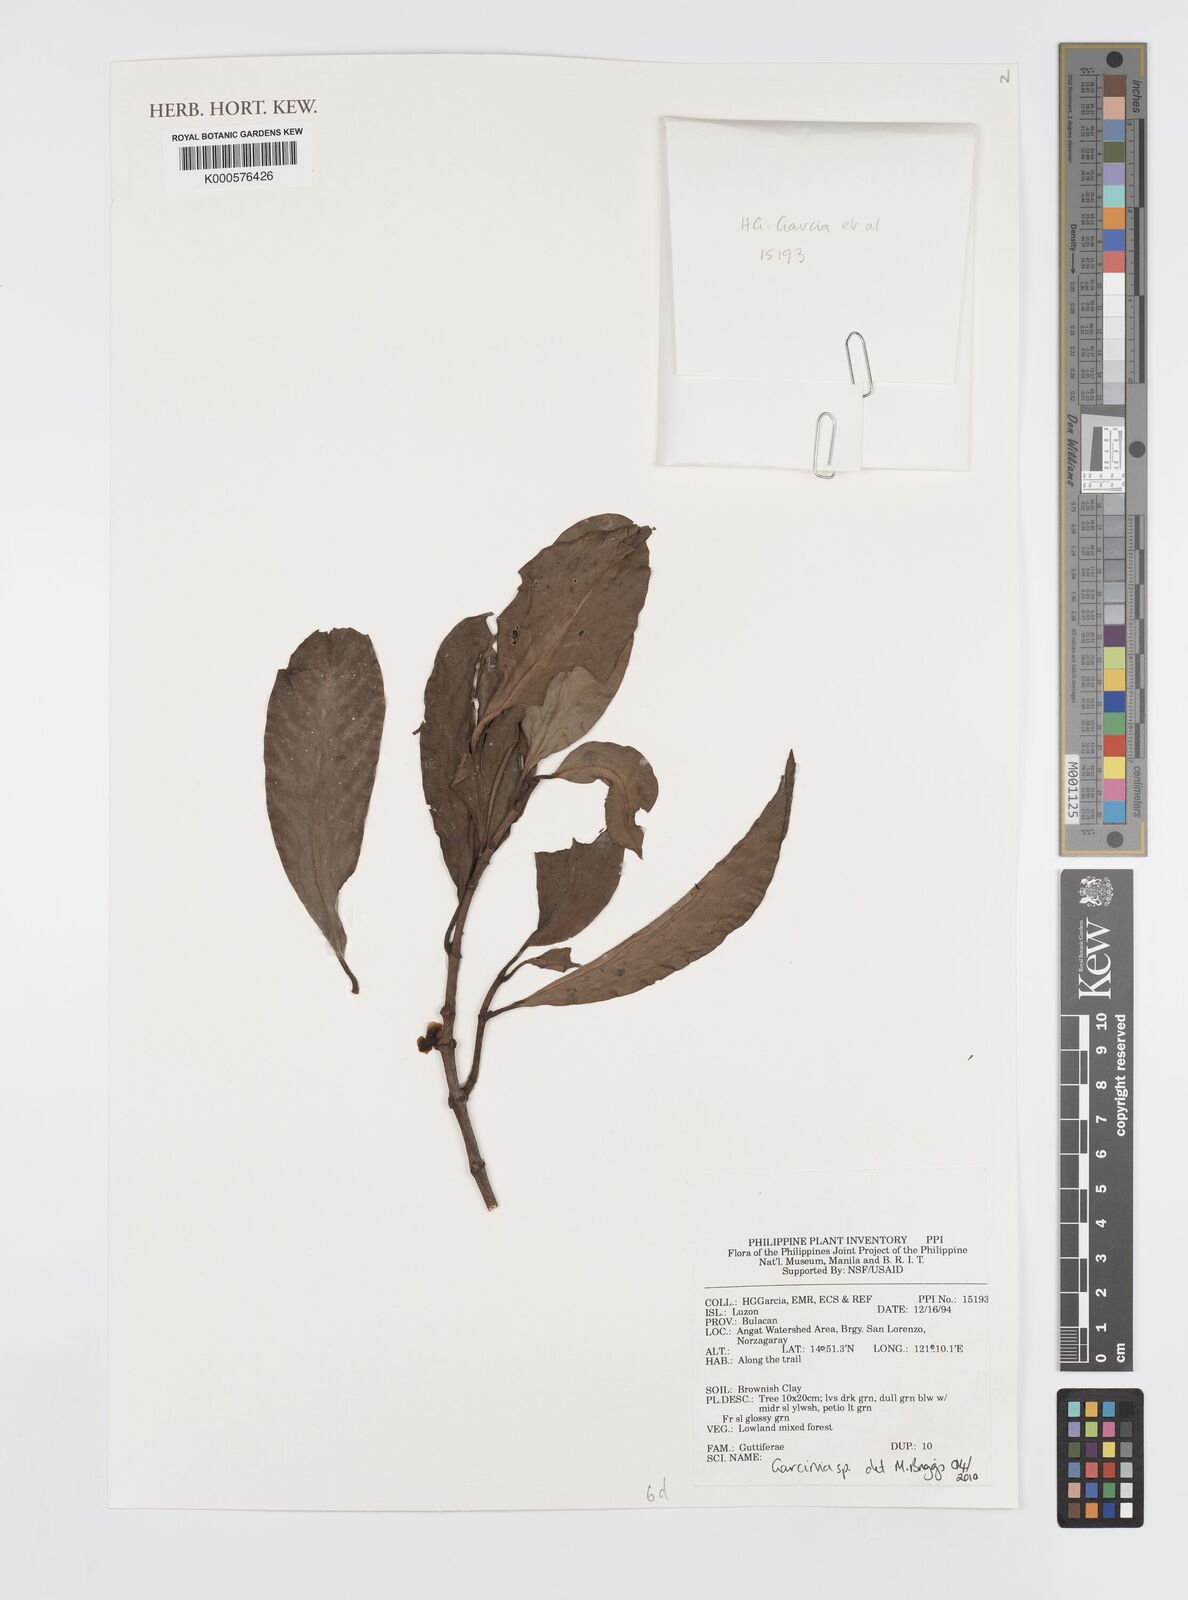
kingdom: Plantae
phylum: Tracheophyta
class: Magnoliopsida
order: Malpighiales
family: Clusiaceae
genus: Garcinia
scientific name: Garcinia
